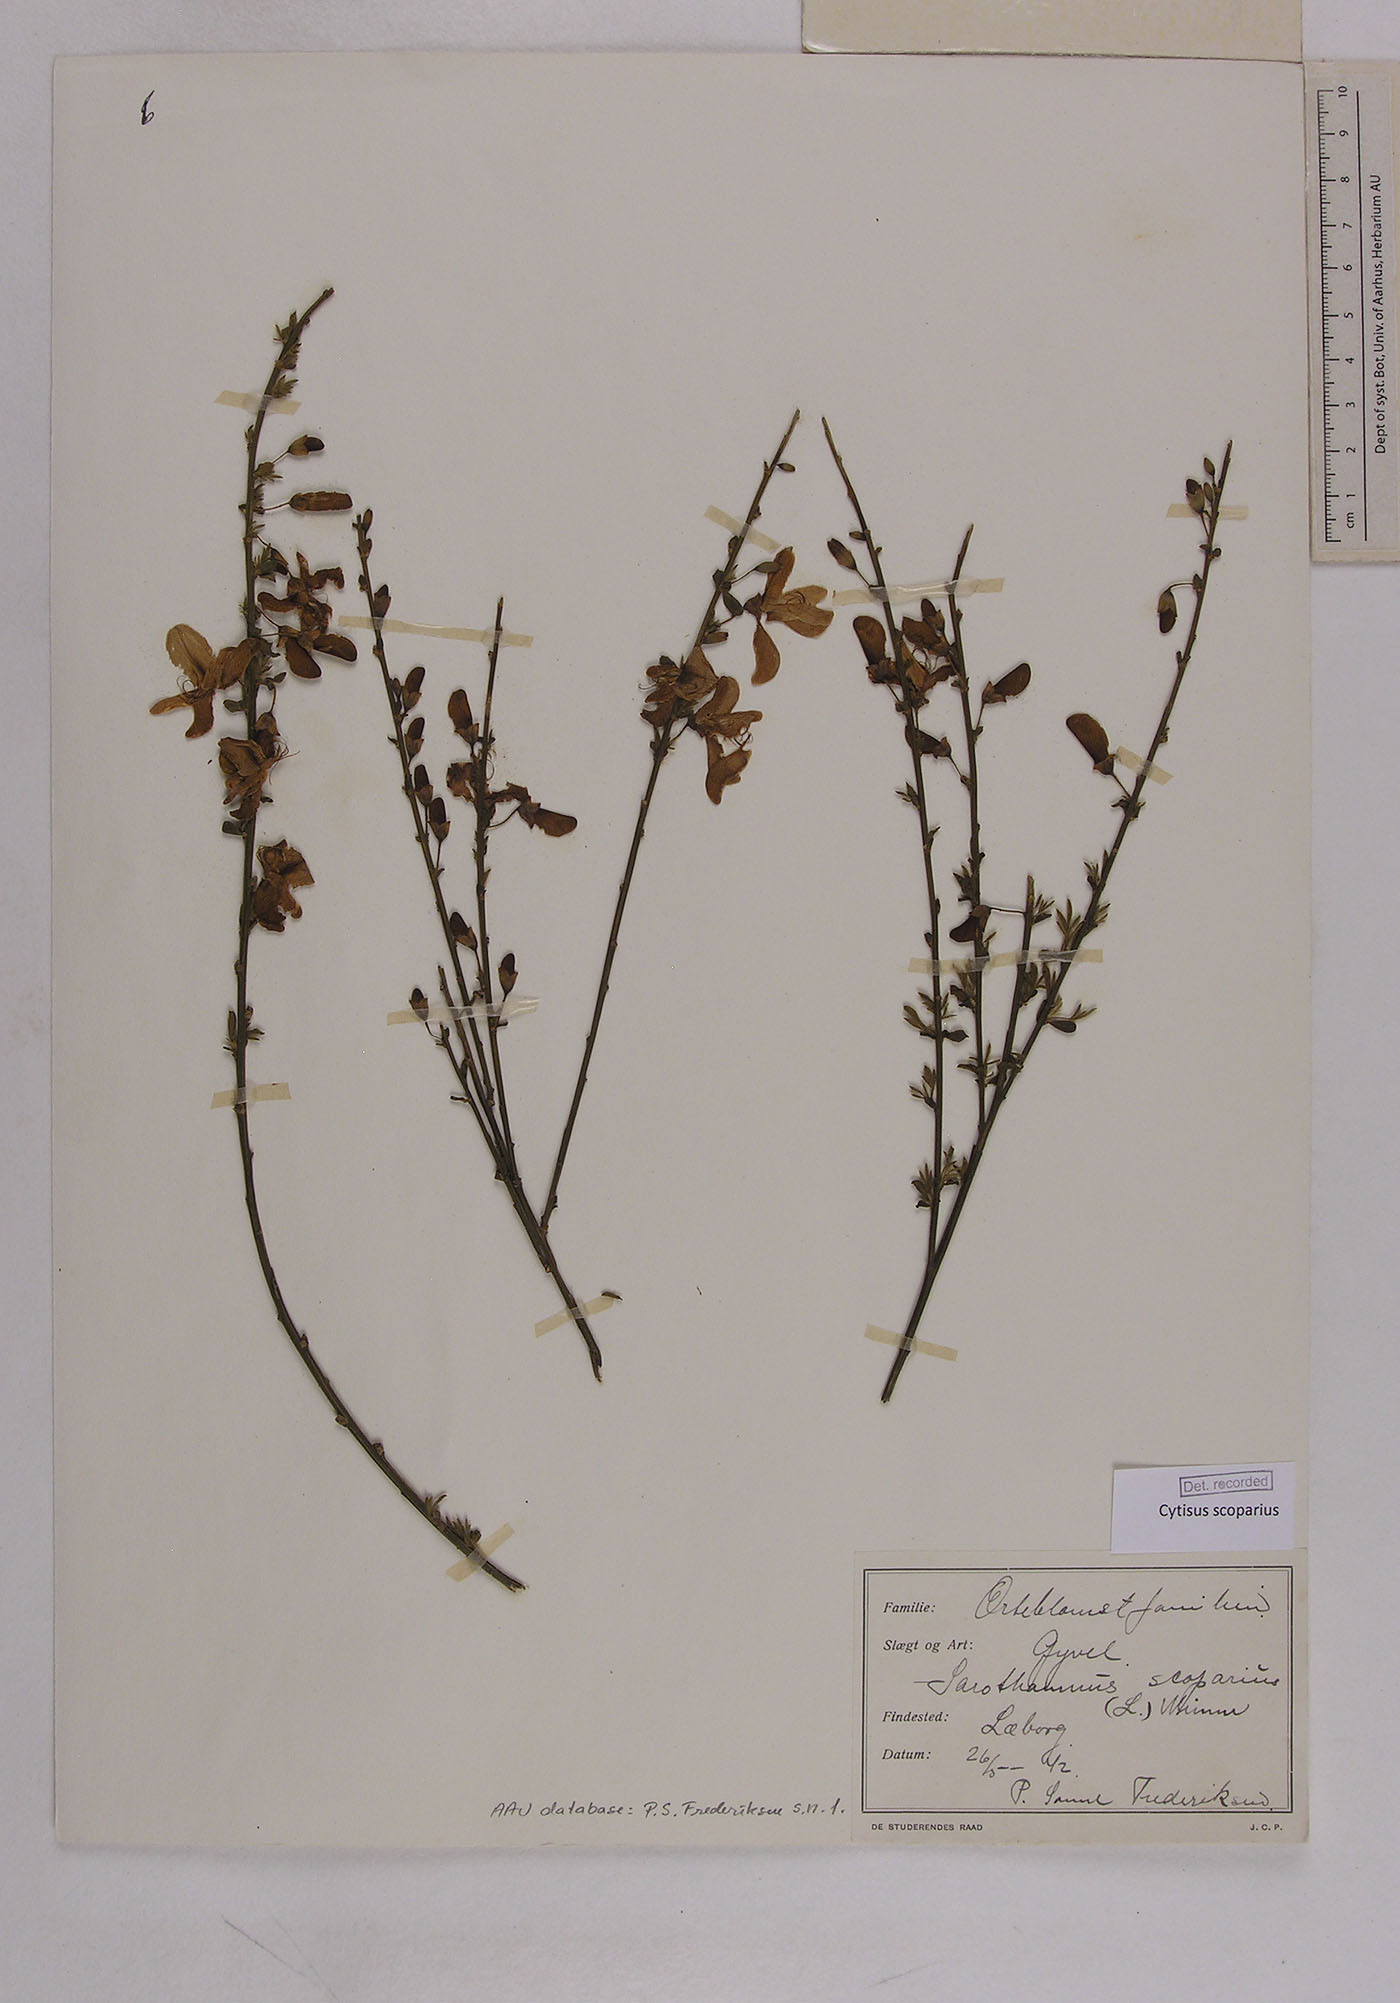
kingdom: Plantae
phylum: Tracheophyta
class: Magnoliopsida
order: Fabales
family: Fabaceae
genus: Cytisus
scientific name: Cytisus scoparius
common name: Scotch broom
